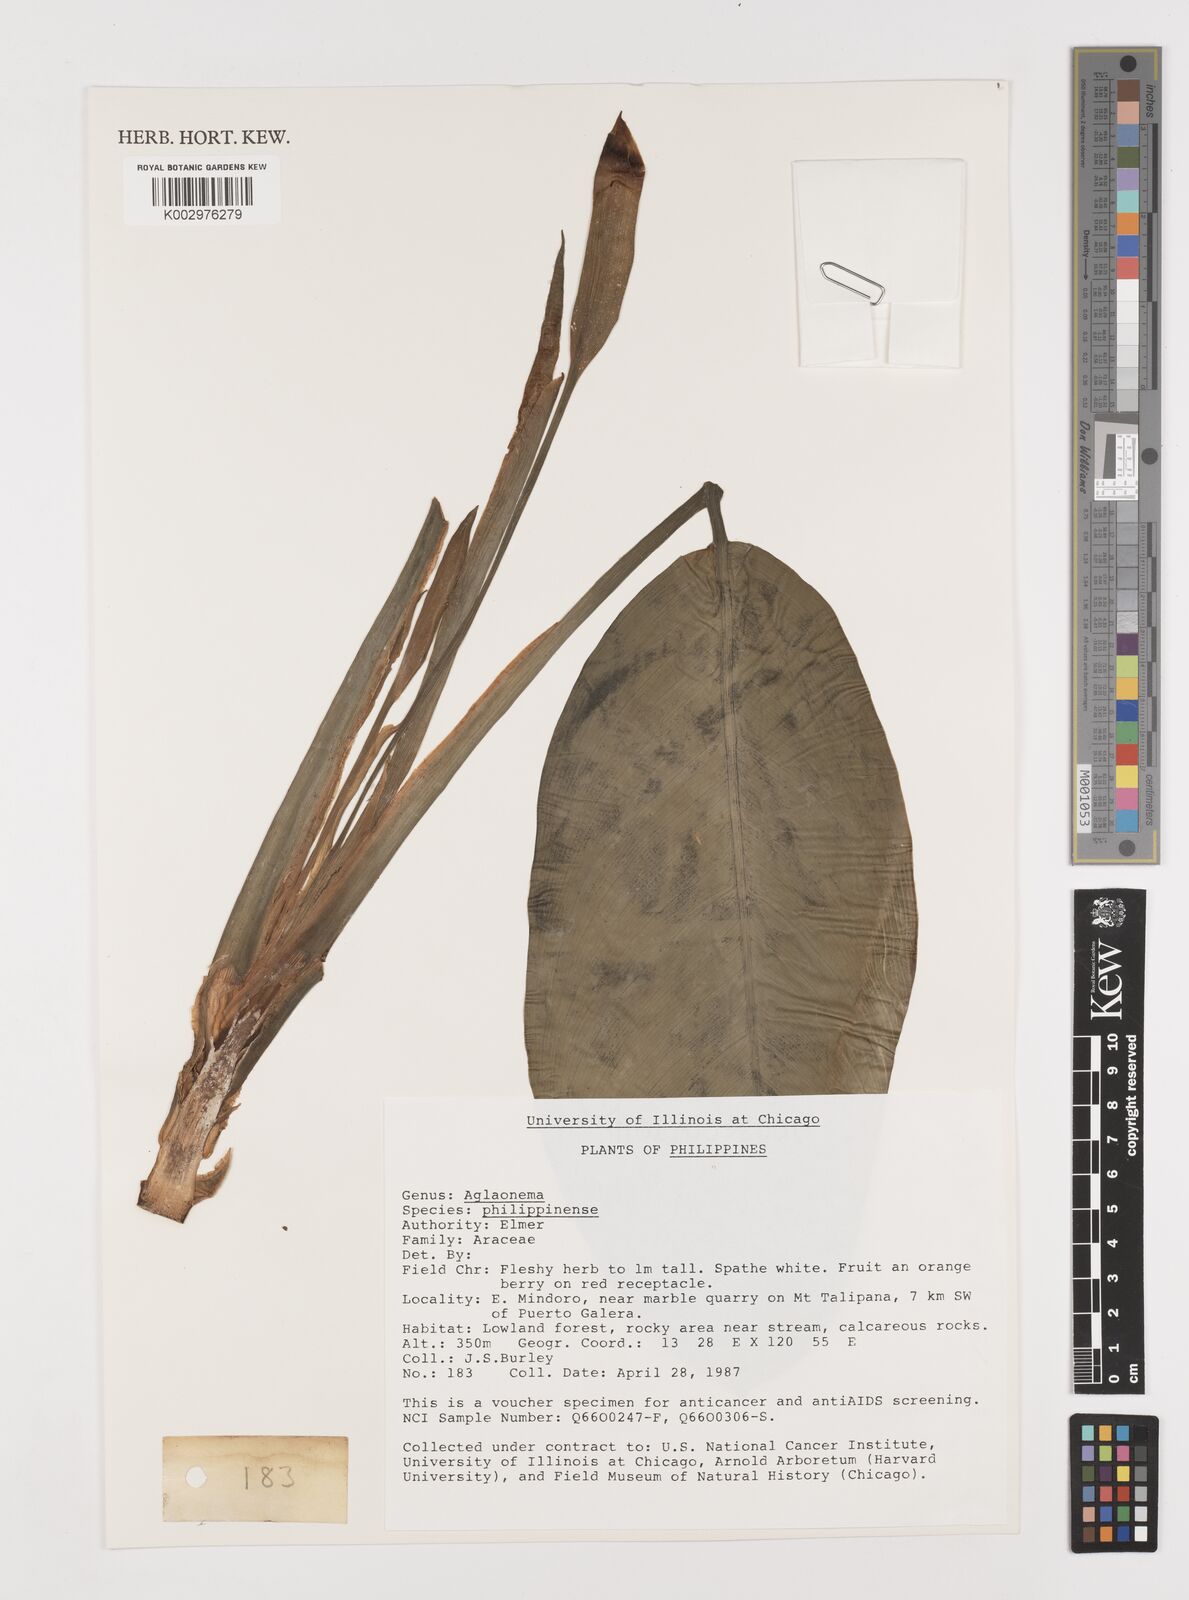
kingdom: Plantae
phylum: Tracheophyta
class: Liliopsida
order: Alismatales
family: Araceae
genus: Aglaonema
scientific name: Aglaonema philippinense
